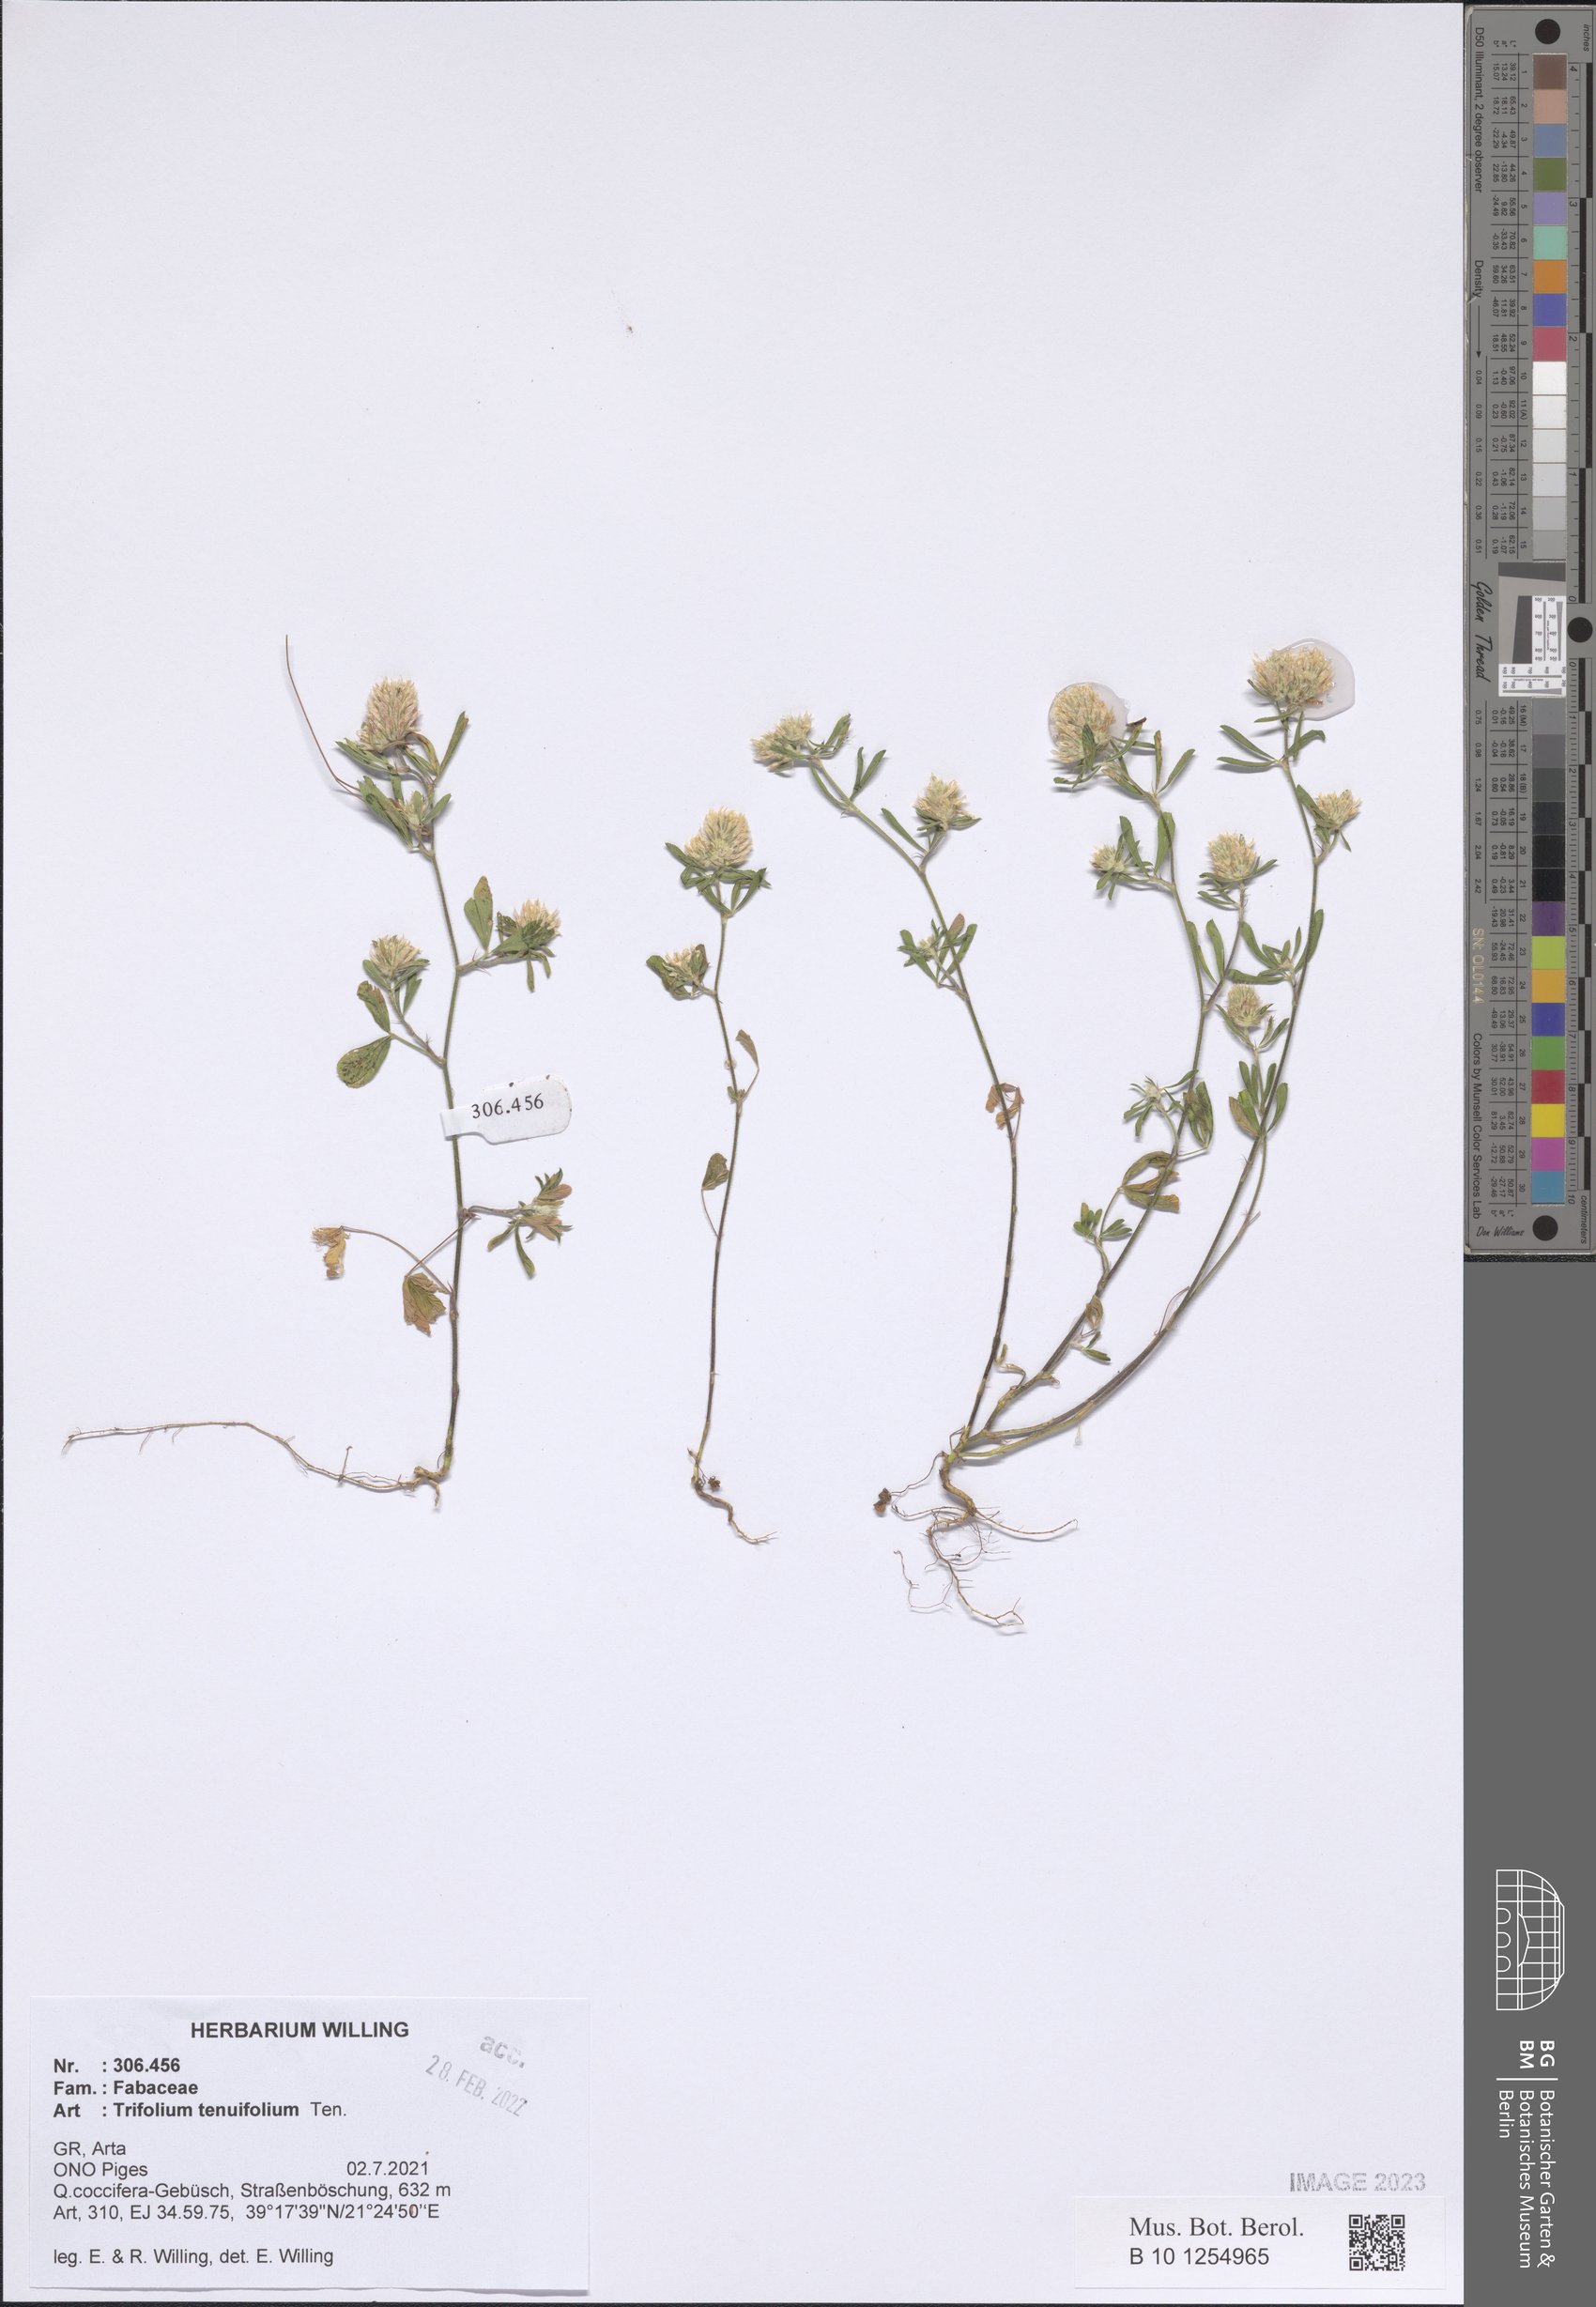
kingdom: Plantae
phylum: Tracheophyta
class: Magnoliopsida
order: Fabales
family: Fabaceae
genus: Trifolium
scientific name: Trifolium tenuifolium
